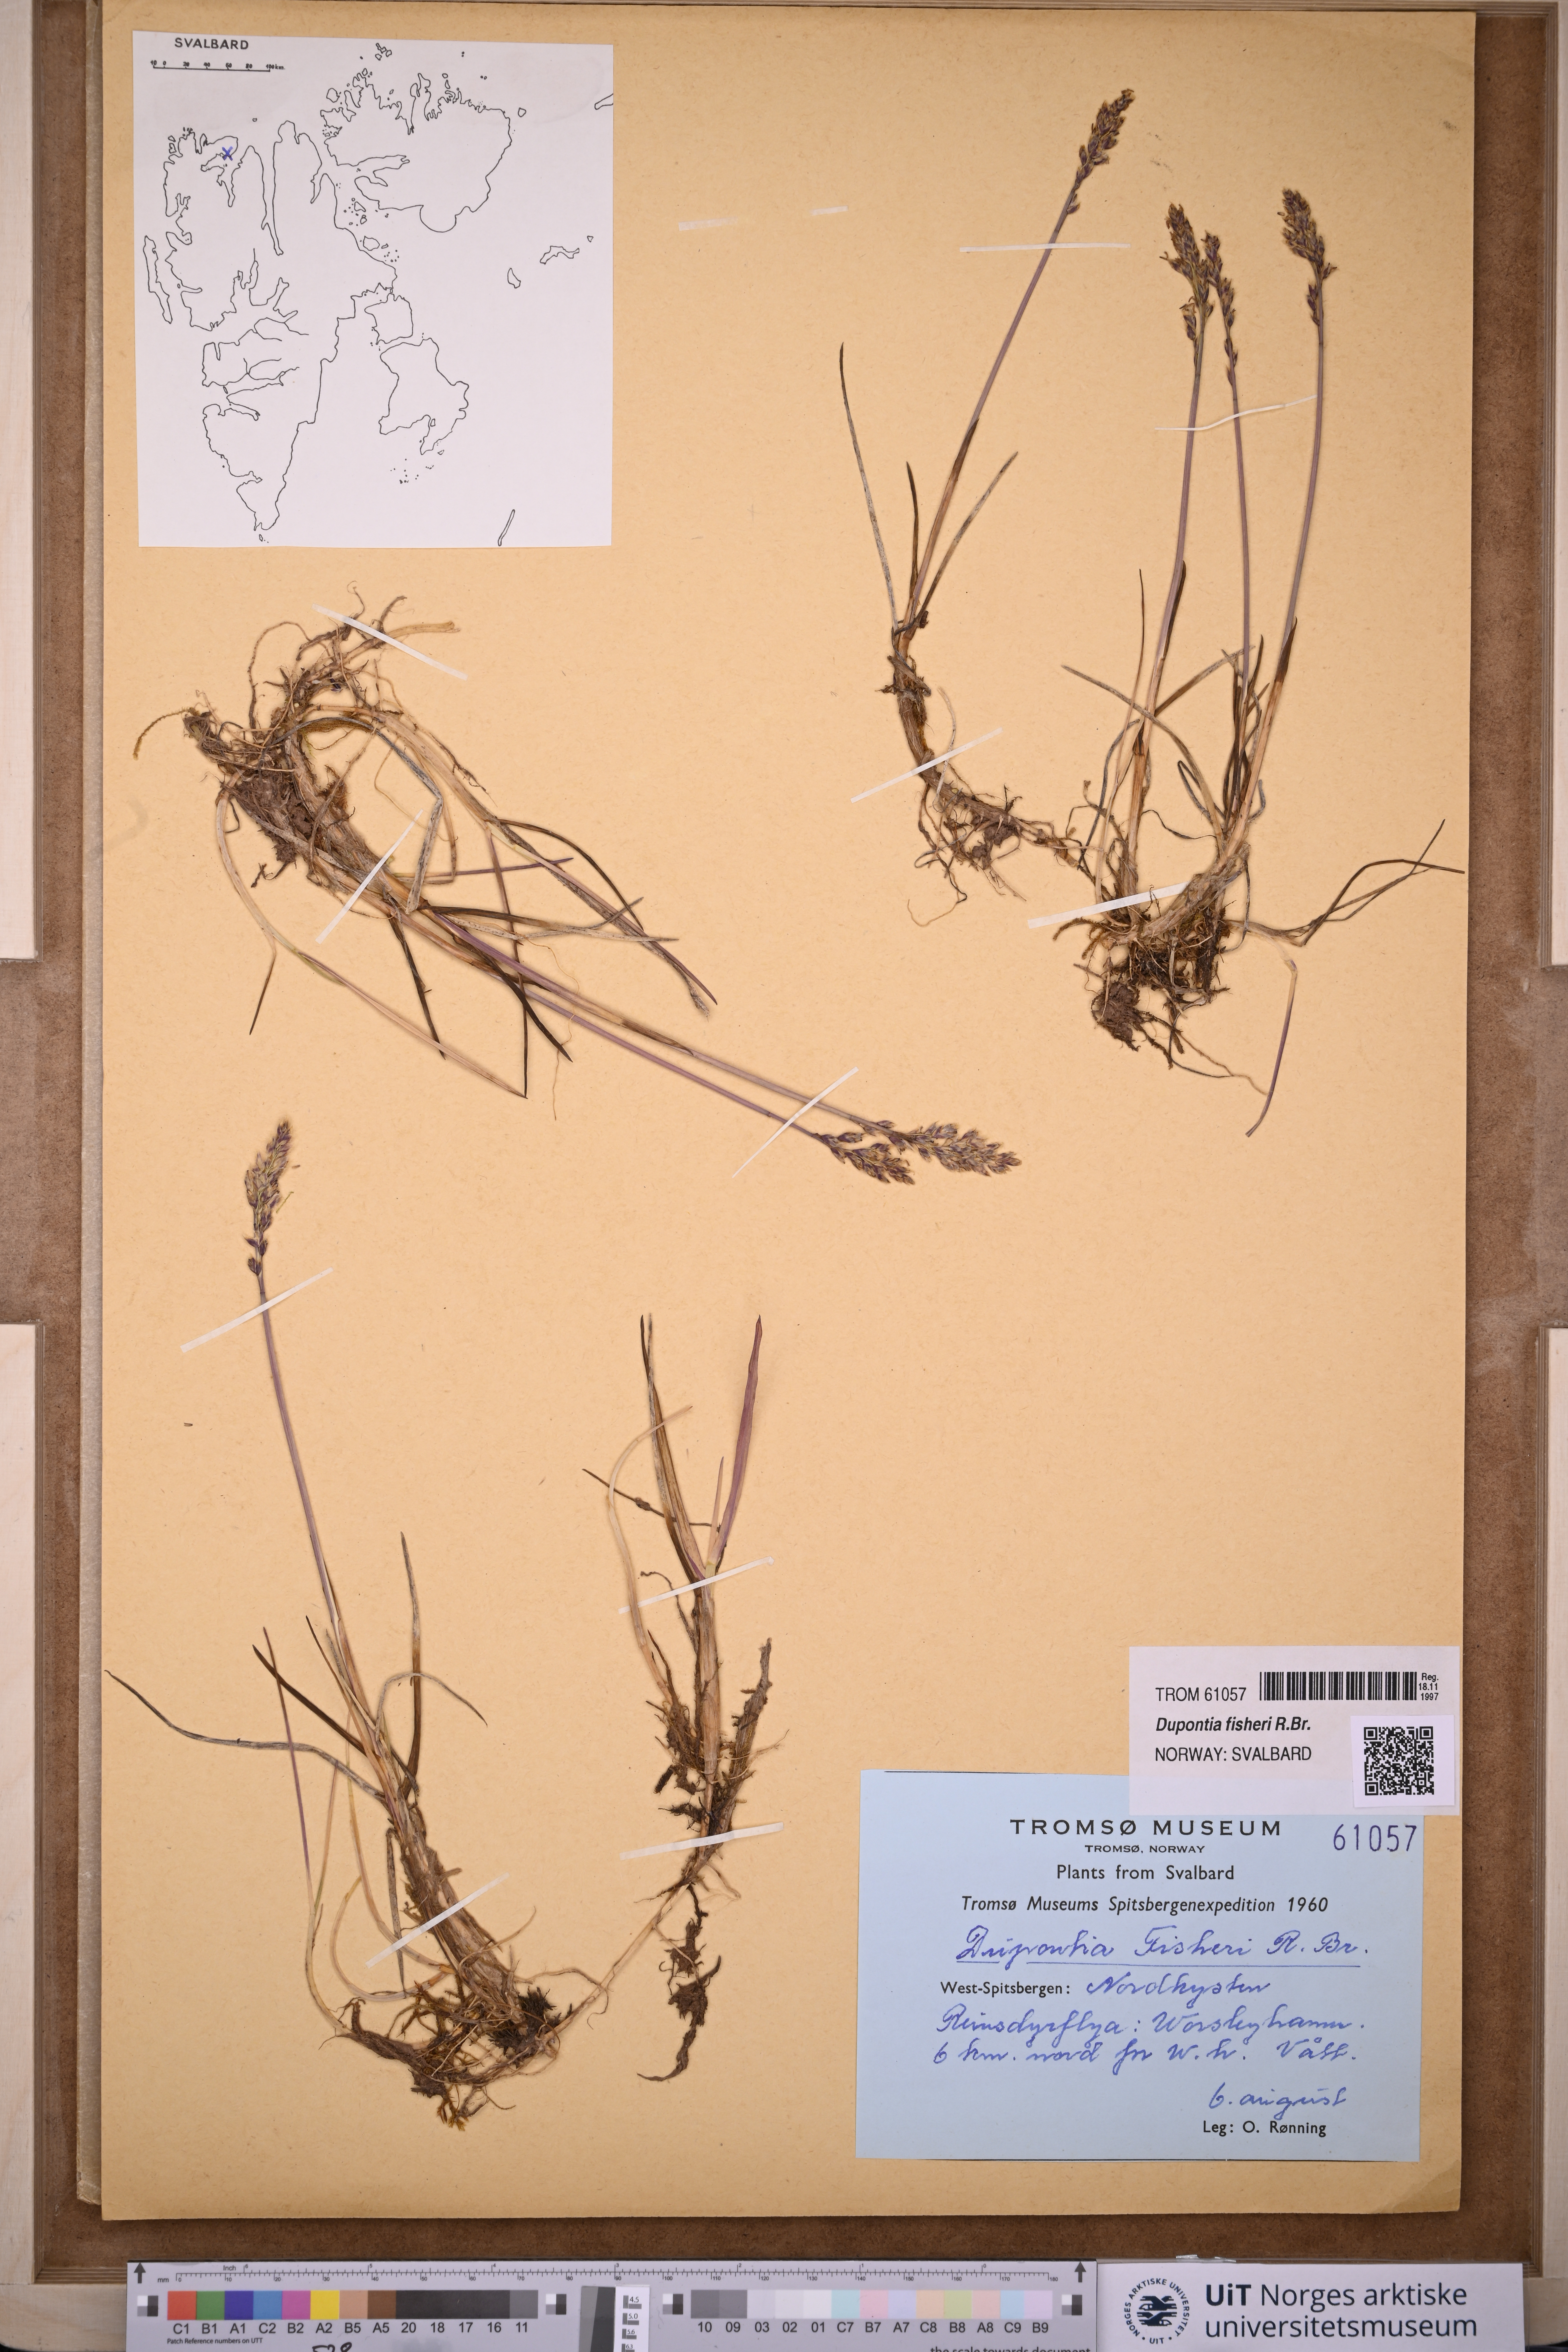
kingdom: Plantae
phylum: Tracheophyta
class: Liliopsida
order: Poales
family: Poaceae
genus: Dupontia
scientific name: Dupontia fisheri
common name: Tundra grass
